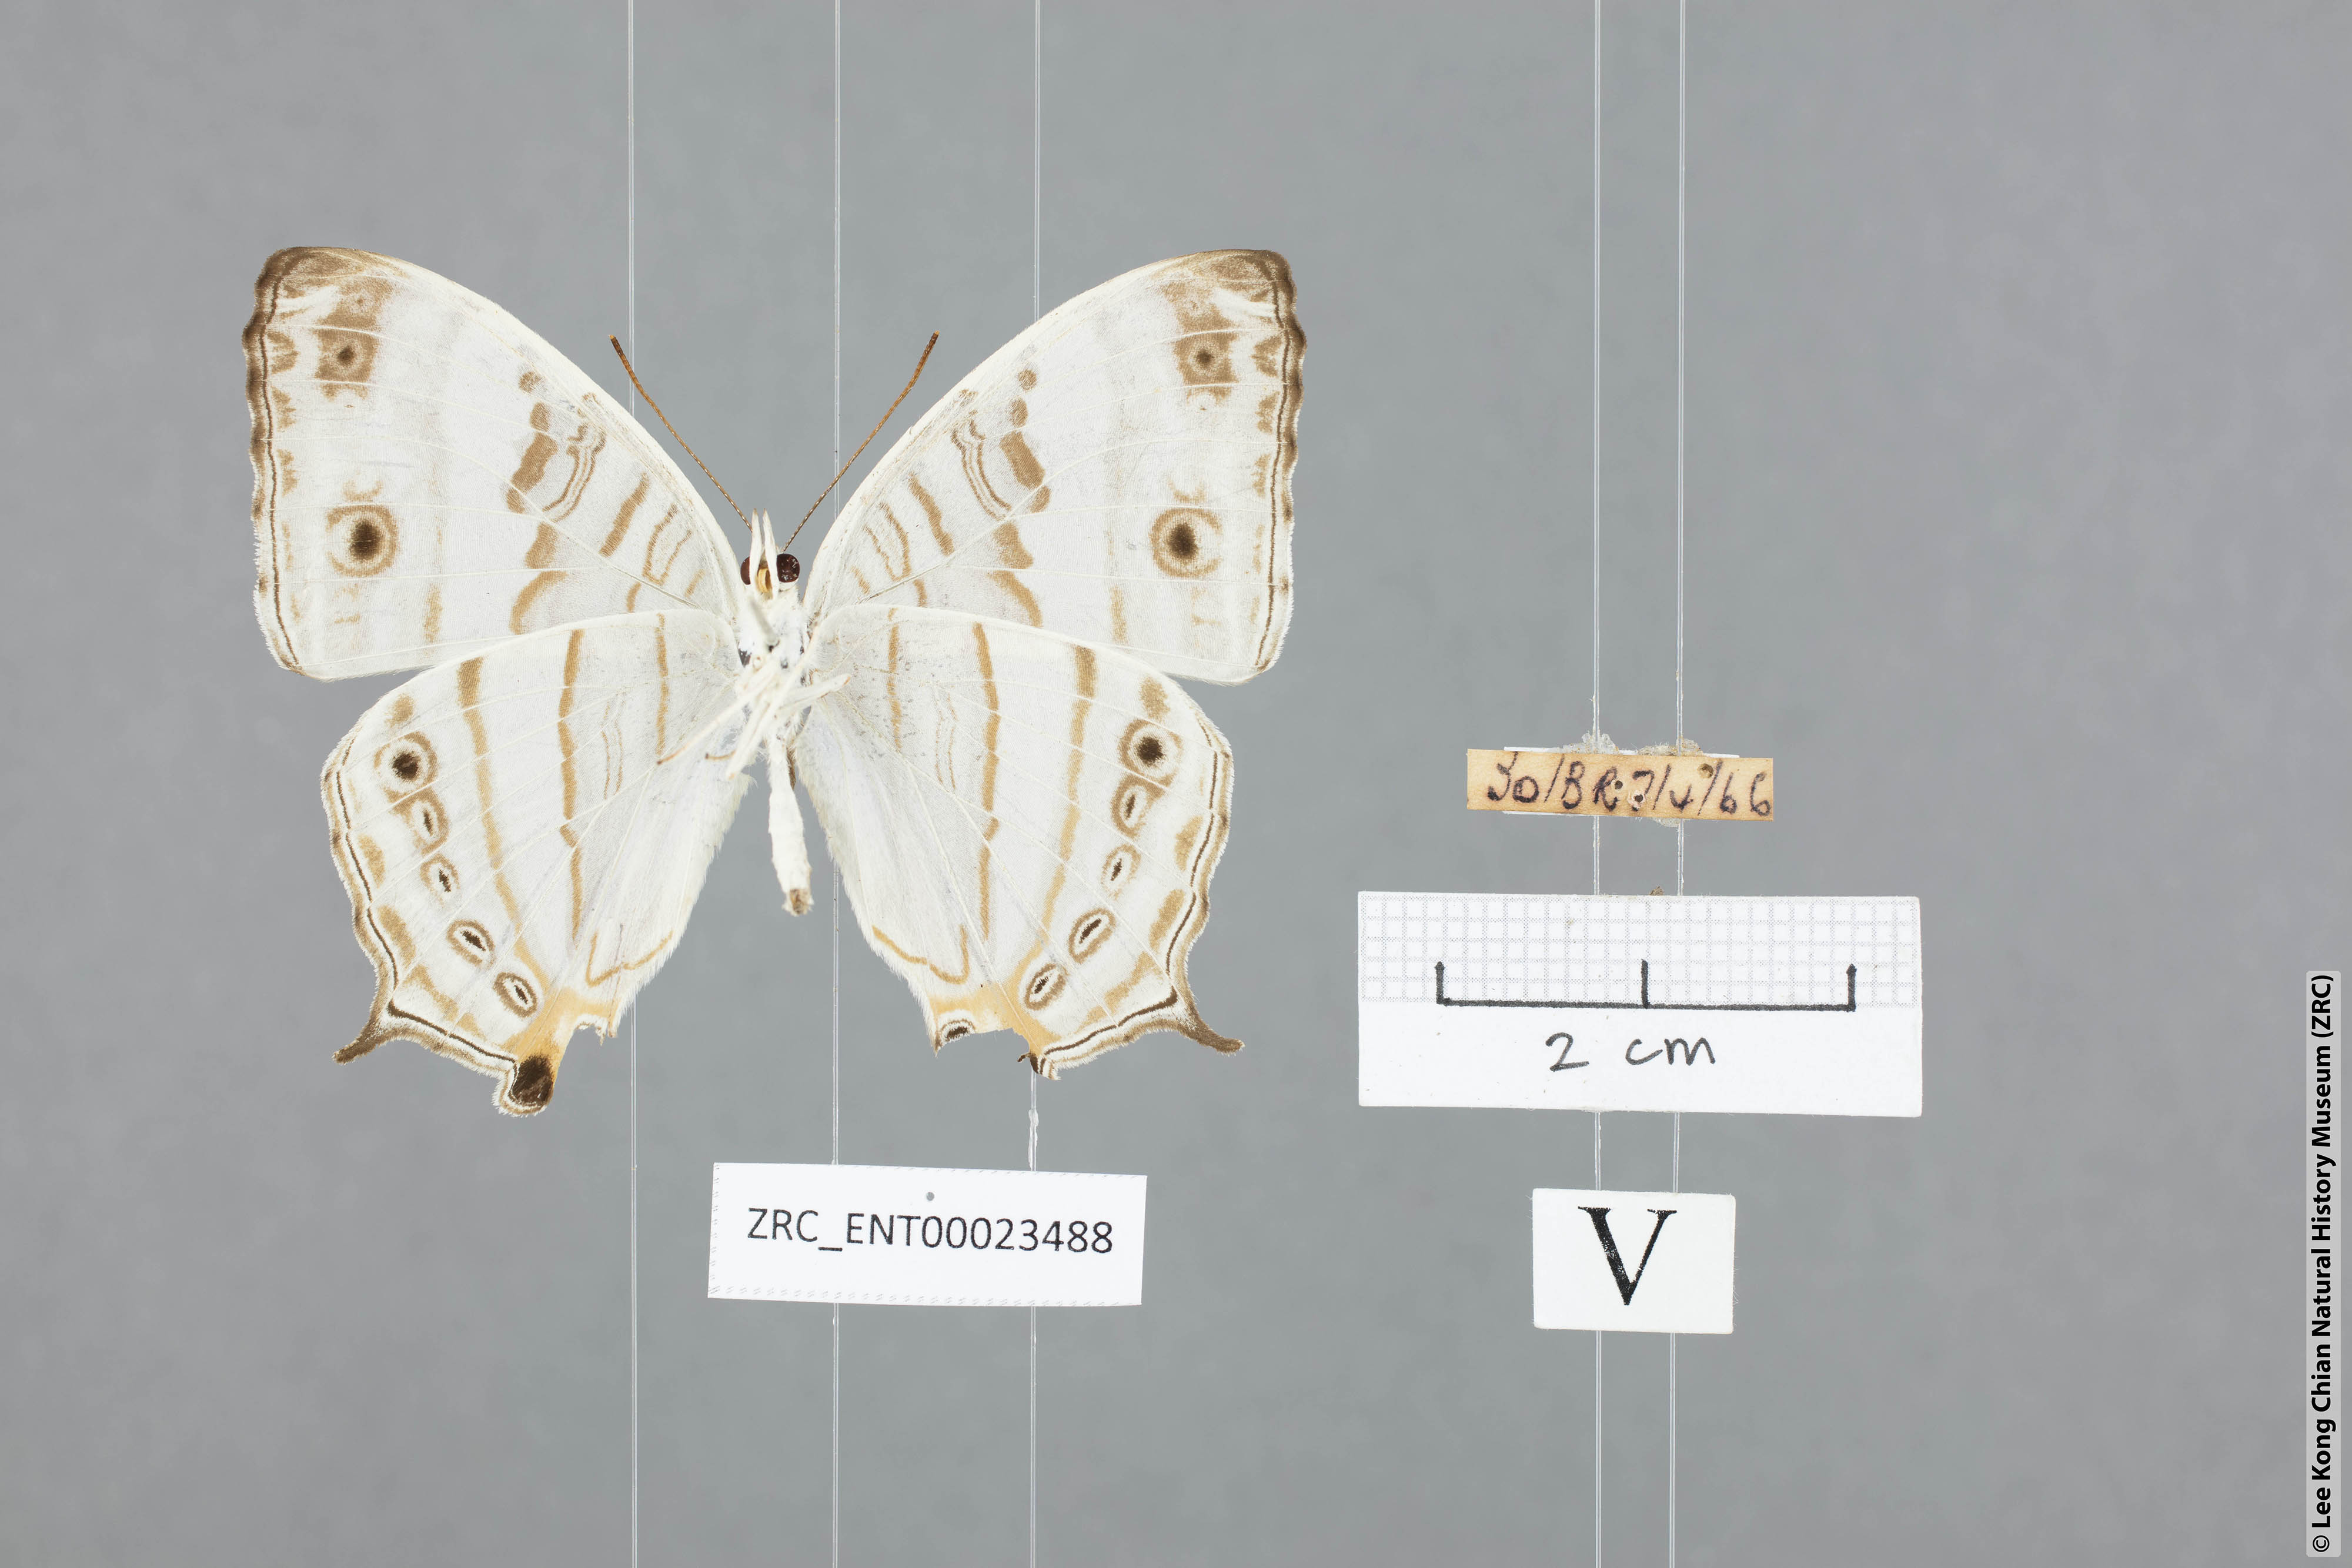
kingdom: Animalia
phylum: Arthropoda
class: Insecta
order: Lepidoptera
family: Nymphalidae
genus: Cyrestis
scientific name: Cyrestis cocles
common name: Marbled map
